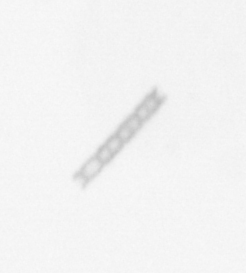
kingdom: Chromista
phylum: Ochrophyta
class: Bacillariophyceae
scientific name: Bacillariophyceae
